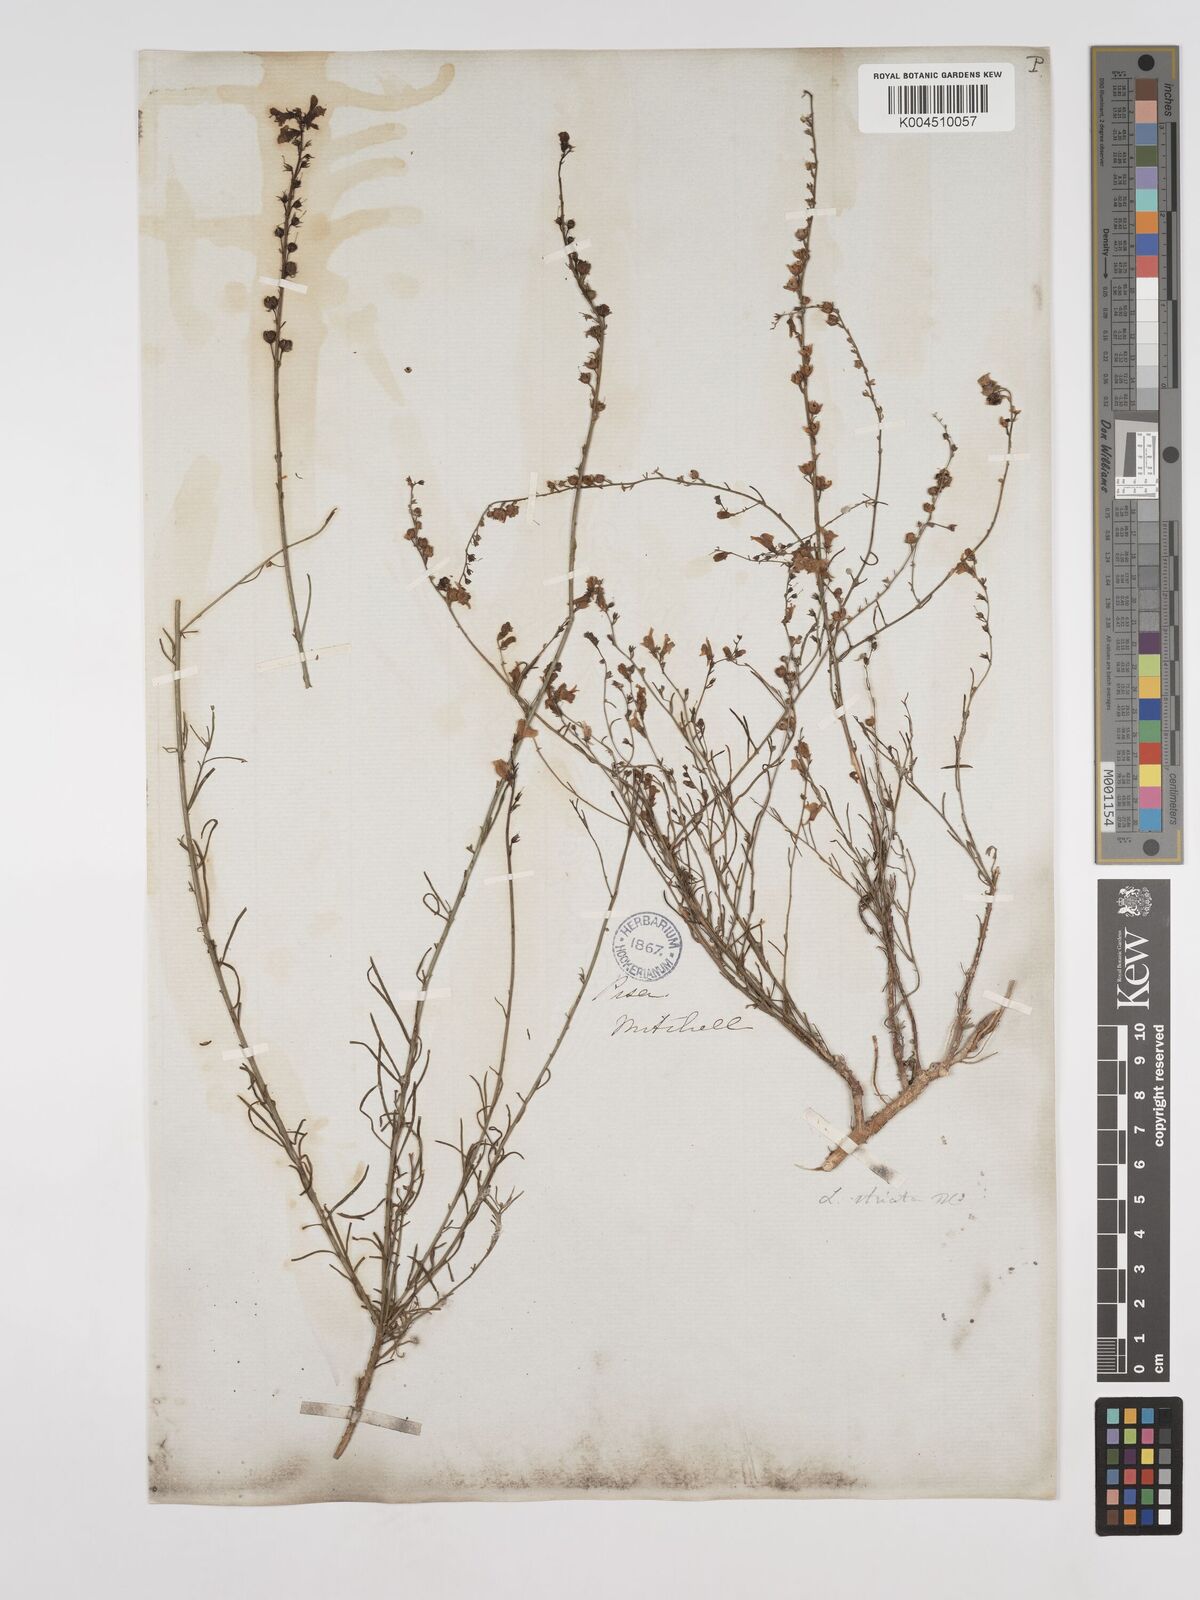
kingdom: Plantae
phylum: Tracheophyta
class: Magnoliopsida
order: Lamiales
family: Plantaginaceae
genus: Linaria
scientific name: Linaria repens
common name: Pale toadflax
